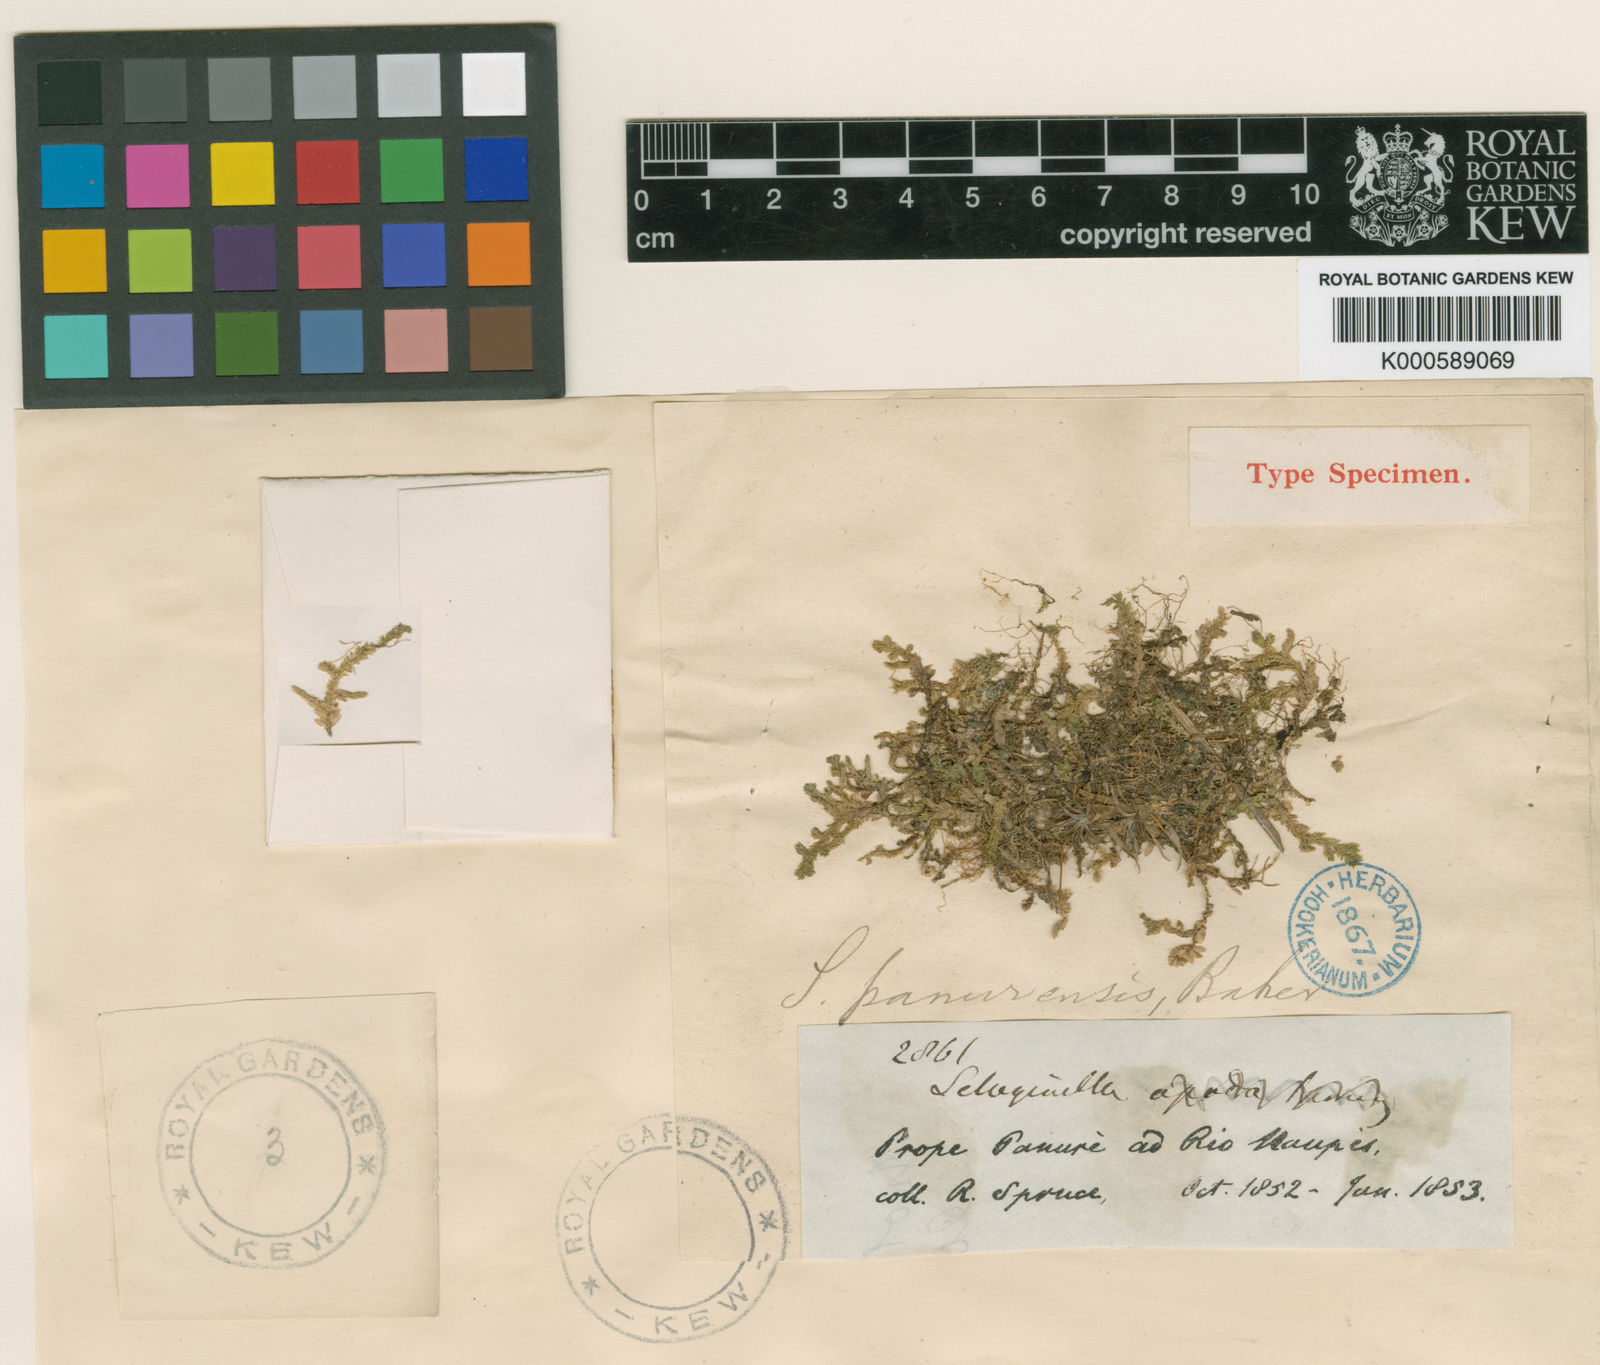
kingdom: Plantae
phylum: Tracheophyta
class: Lycopodiopsida
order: Selaginellales
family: Selaginellaceae
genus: Selaginella
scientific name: Selaginella panurensis
